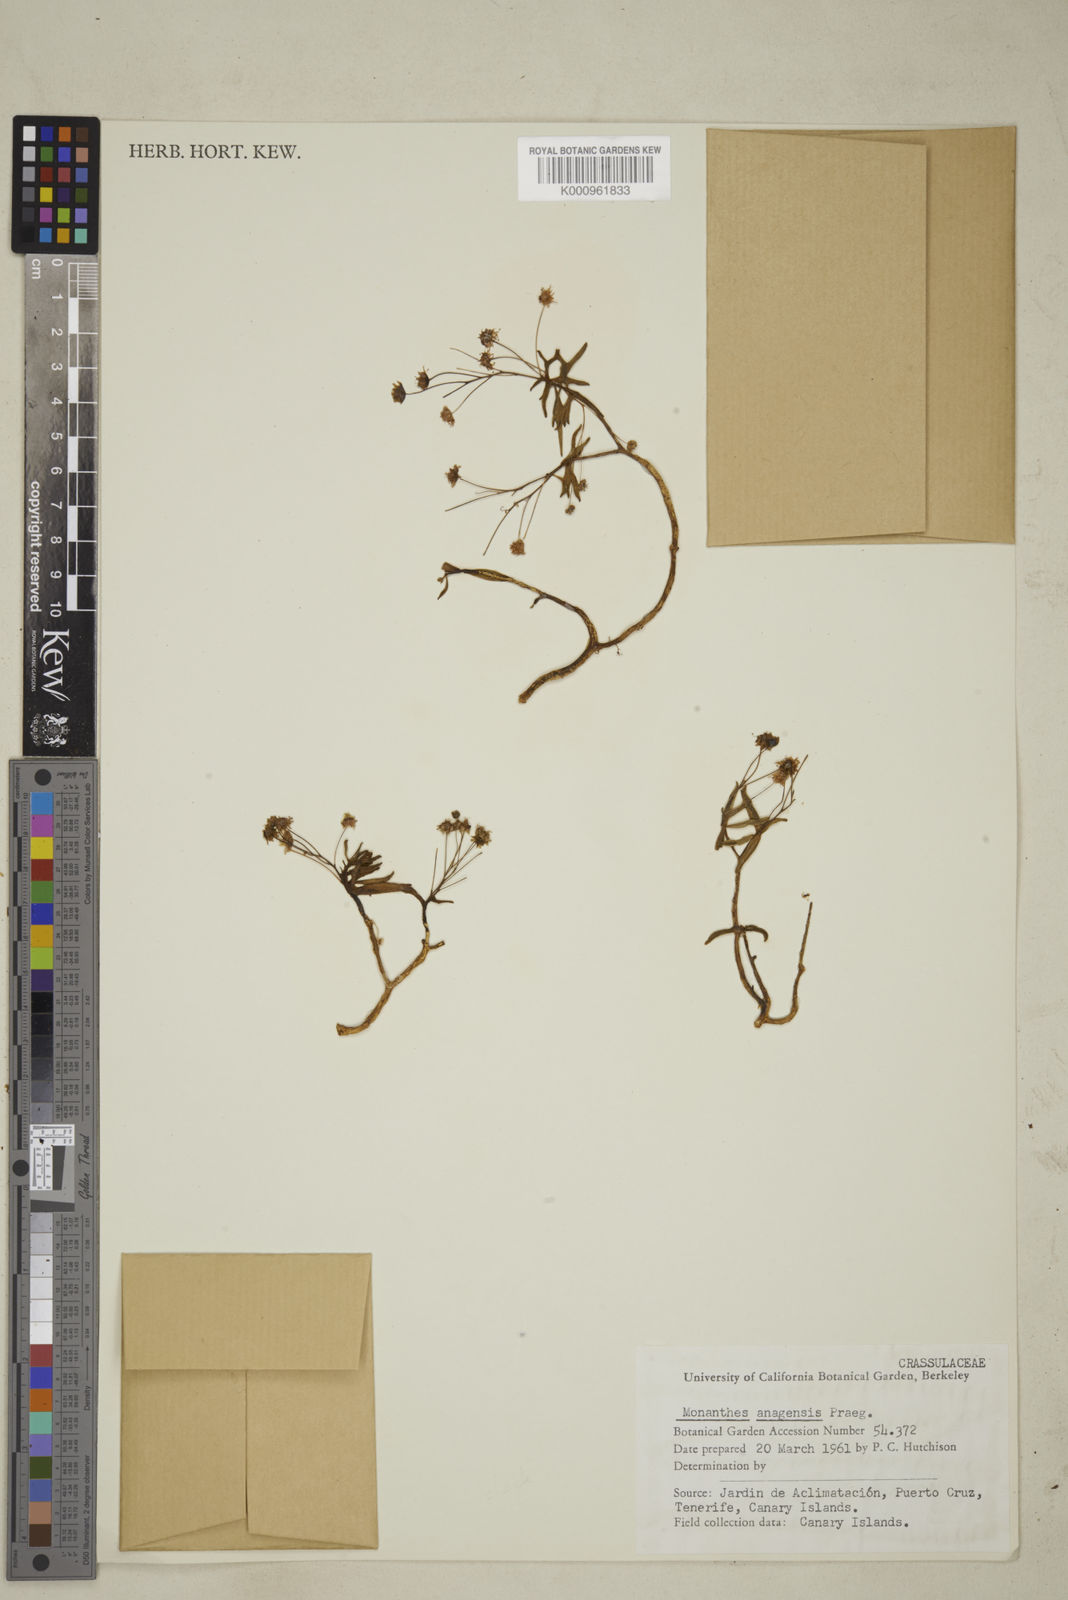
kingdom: Plantae
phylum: Tracheophyta
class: Magnoliopsida
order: Saxifragales
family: Crassulaceae
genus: Monanthes
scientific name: Monanthes anagensis
